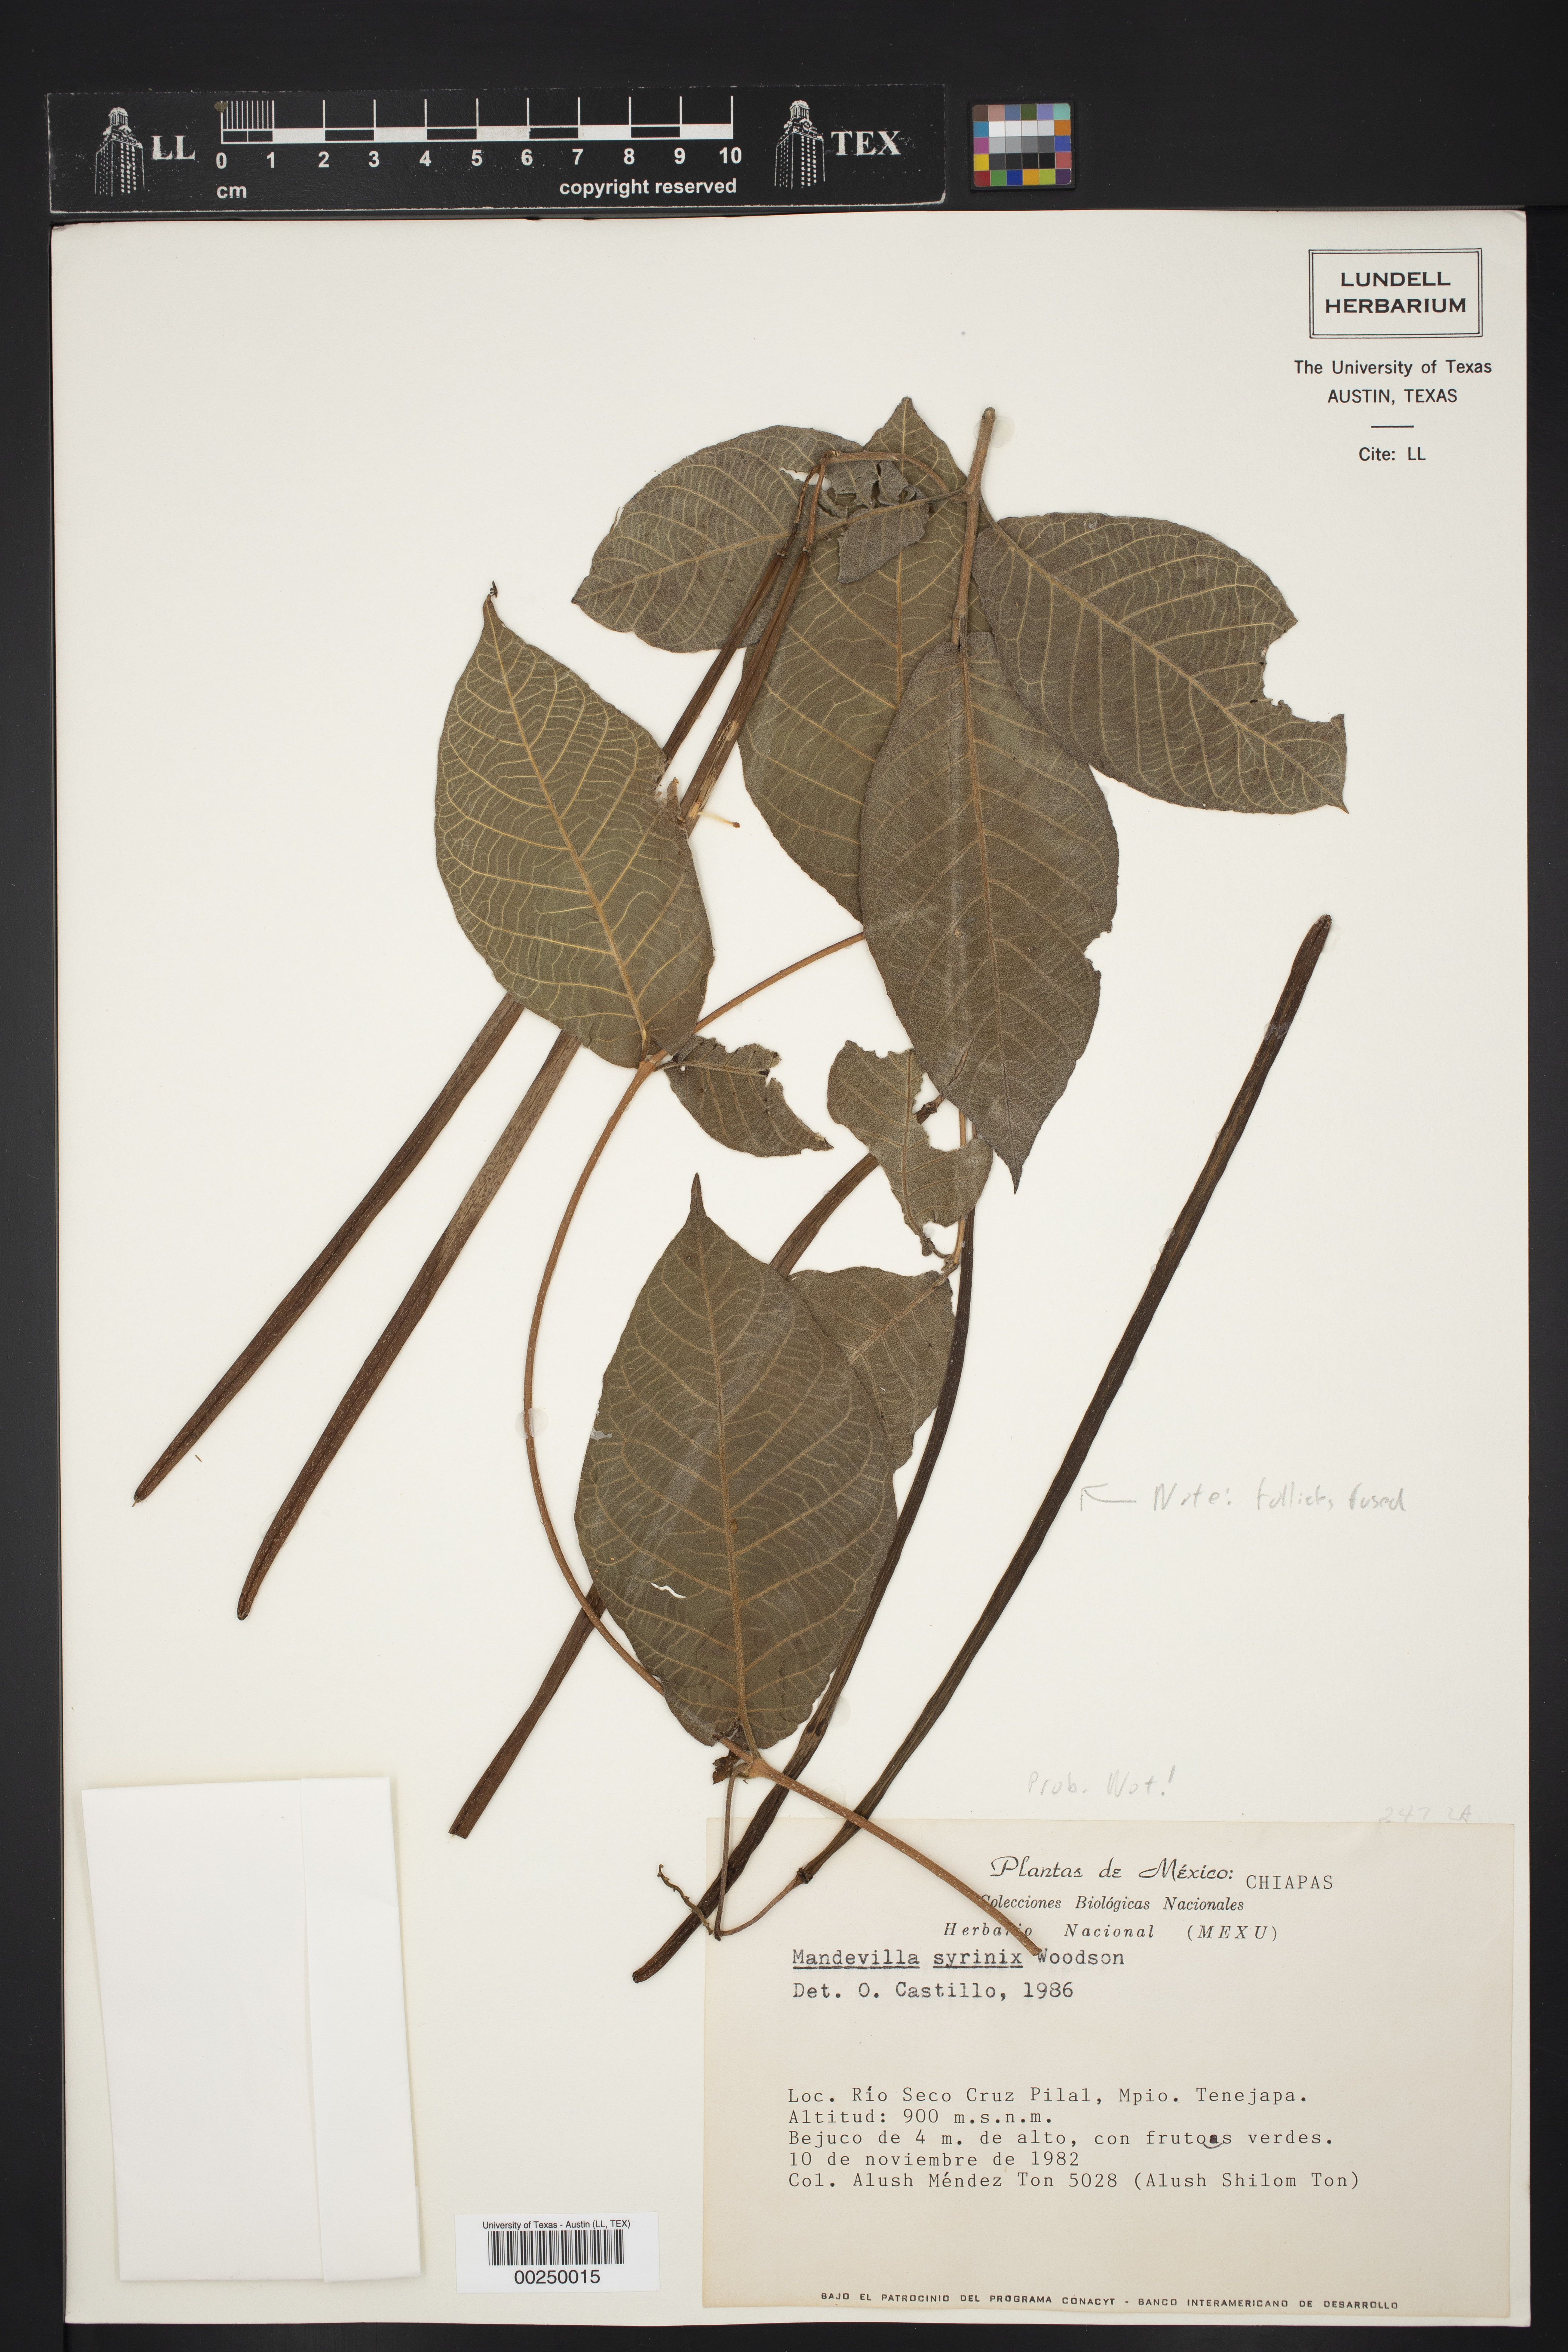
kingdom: Plantae
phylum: Tracheophyta
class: Magnoliopsida
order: Gentianales
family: Apocynaceae
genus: Mandevilla
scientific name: Mandevilla holosericea
